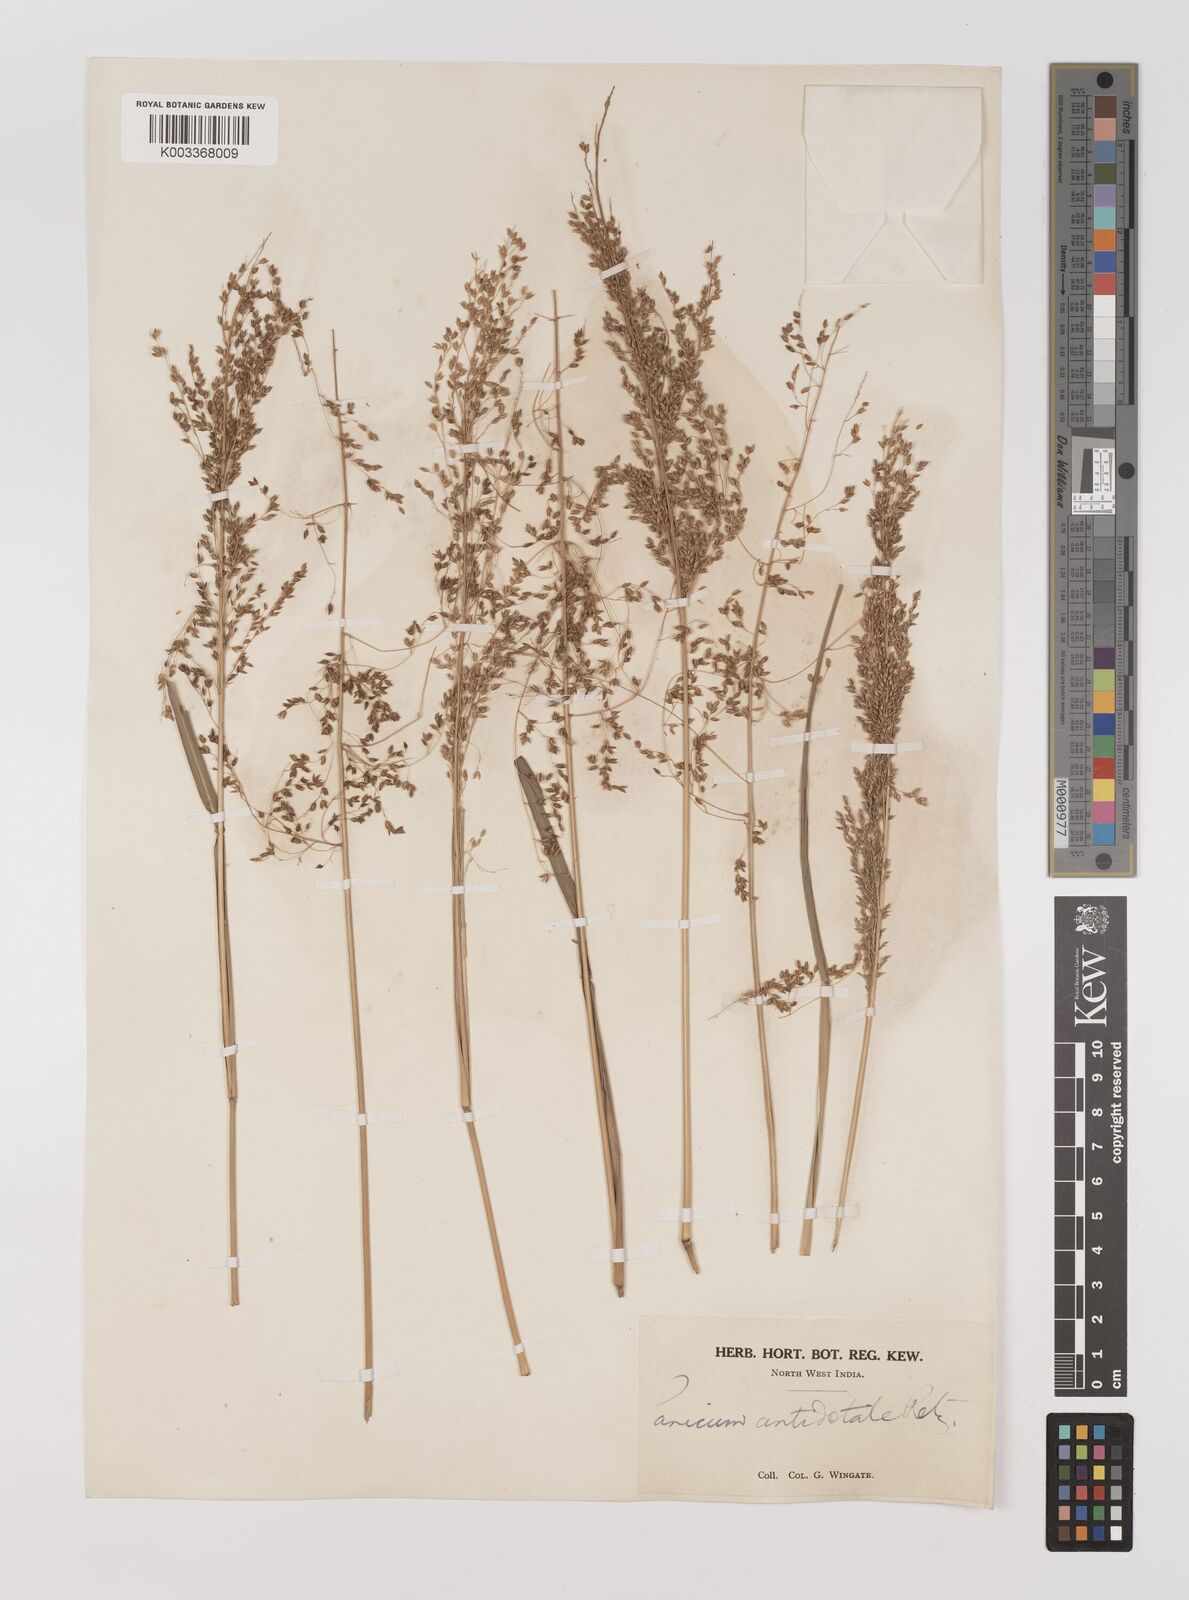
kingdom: Plantae
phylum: Tracheophyta
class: Liliopsida
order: Poales
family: Poaceae
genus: Panicum
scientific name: Panicum antidotale
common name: Blue panicum
